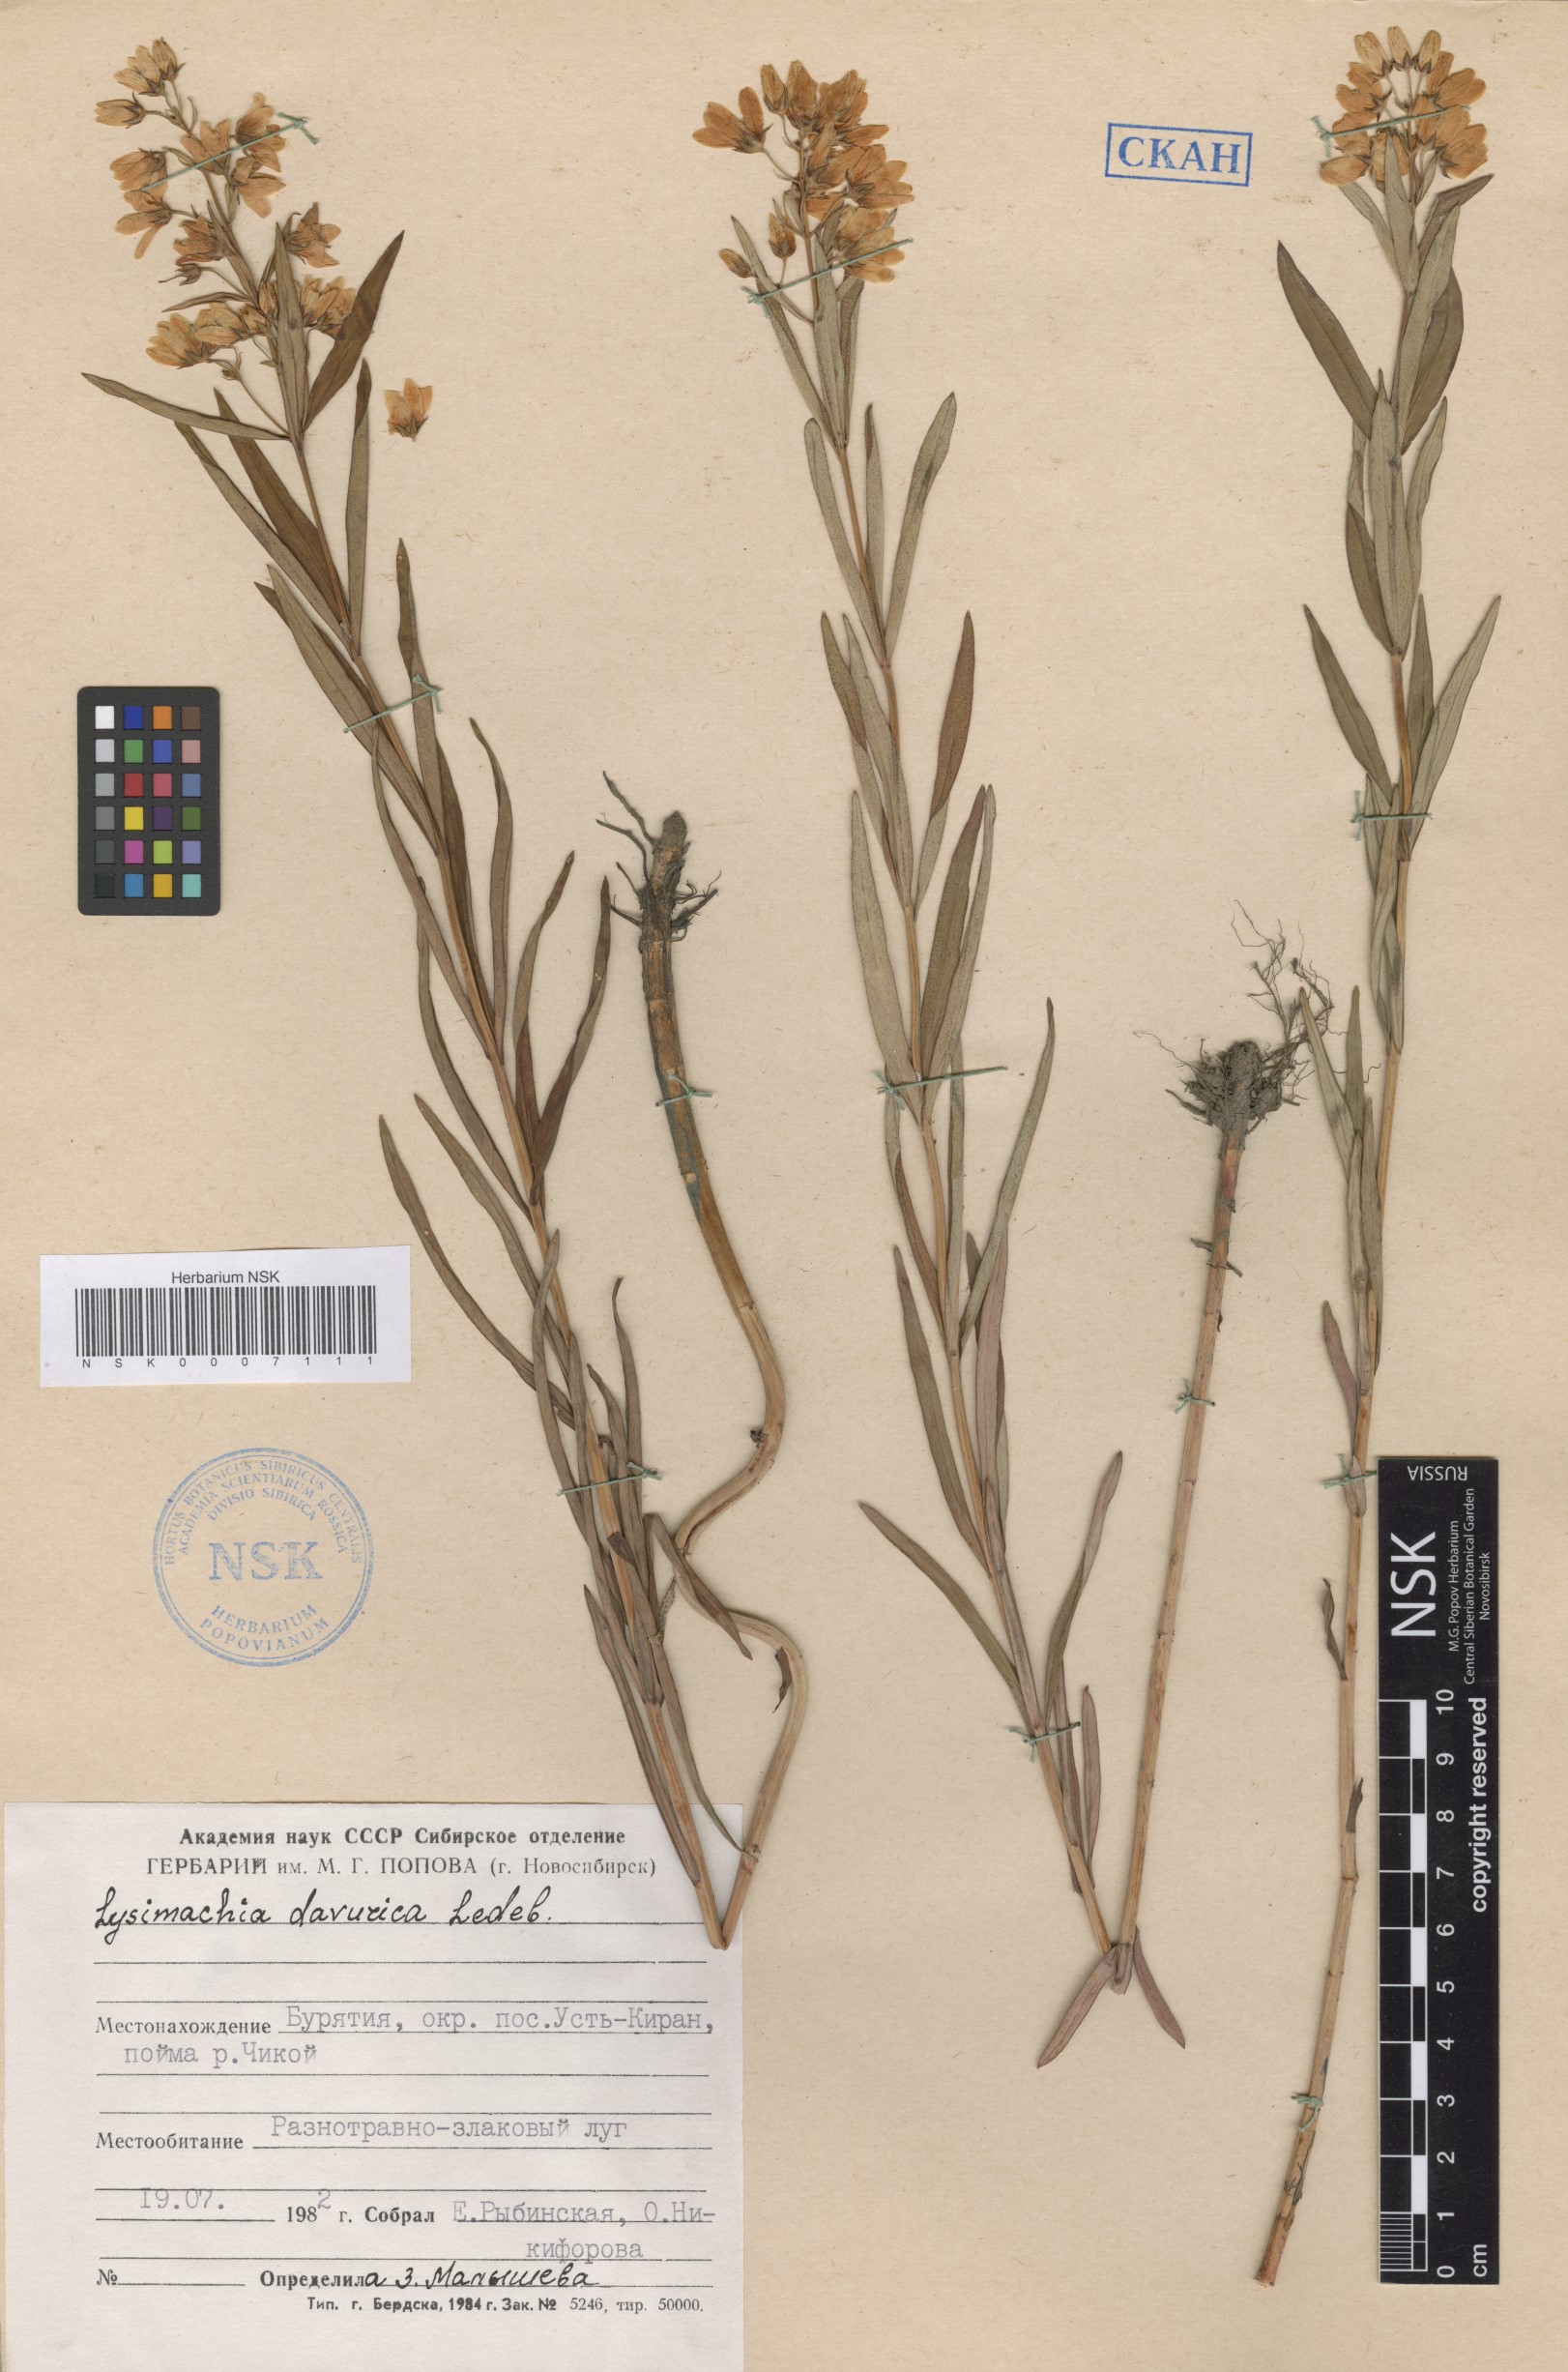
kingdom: Plantae
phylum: Tracheophyta
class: Magnoliopsida
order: Ericales
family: Primulaceae
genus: Lysimachia
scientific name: Lysimachia davurica
